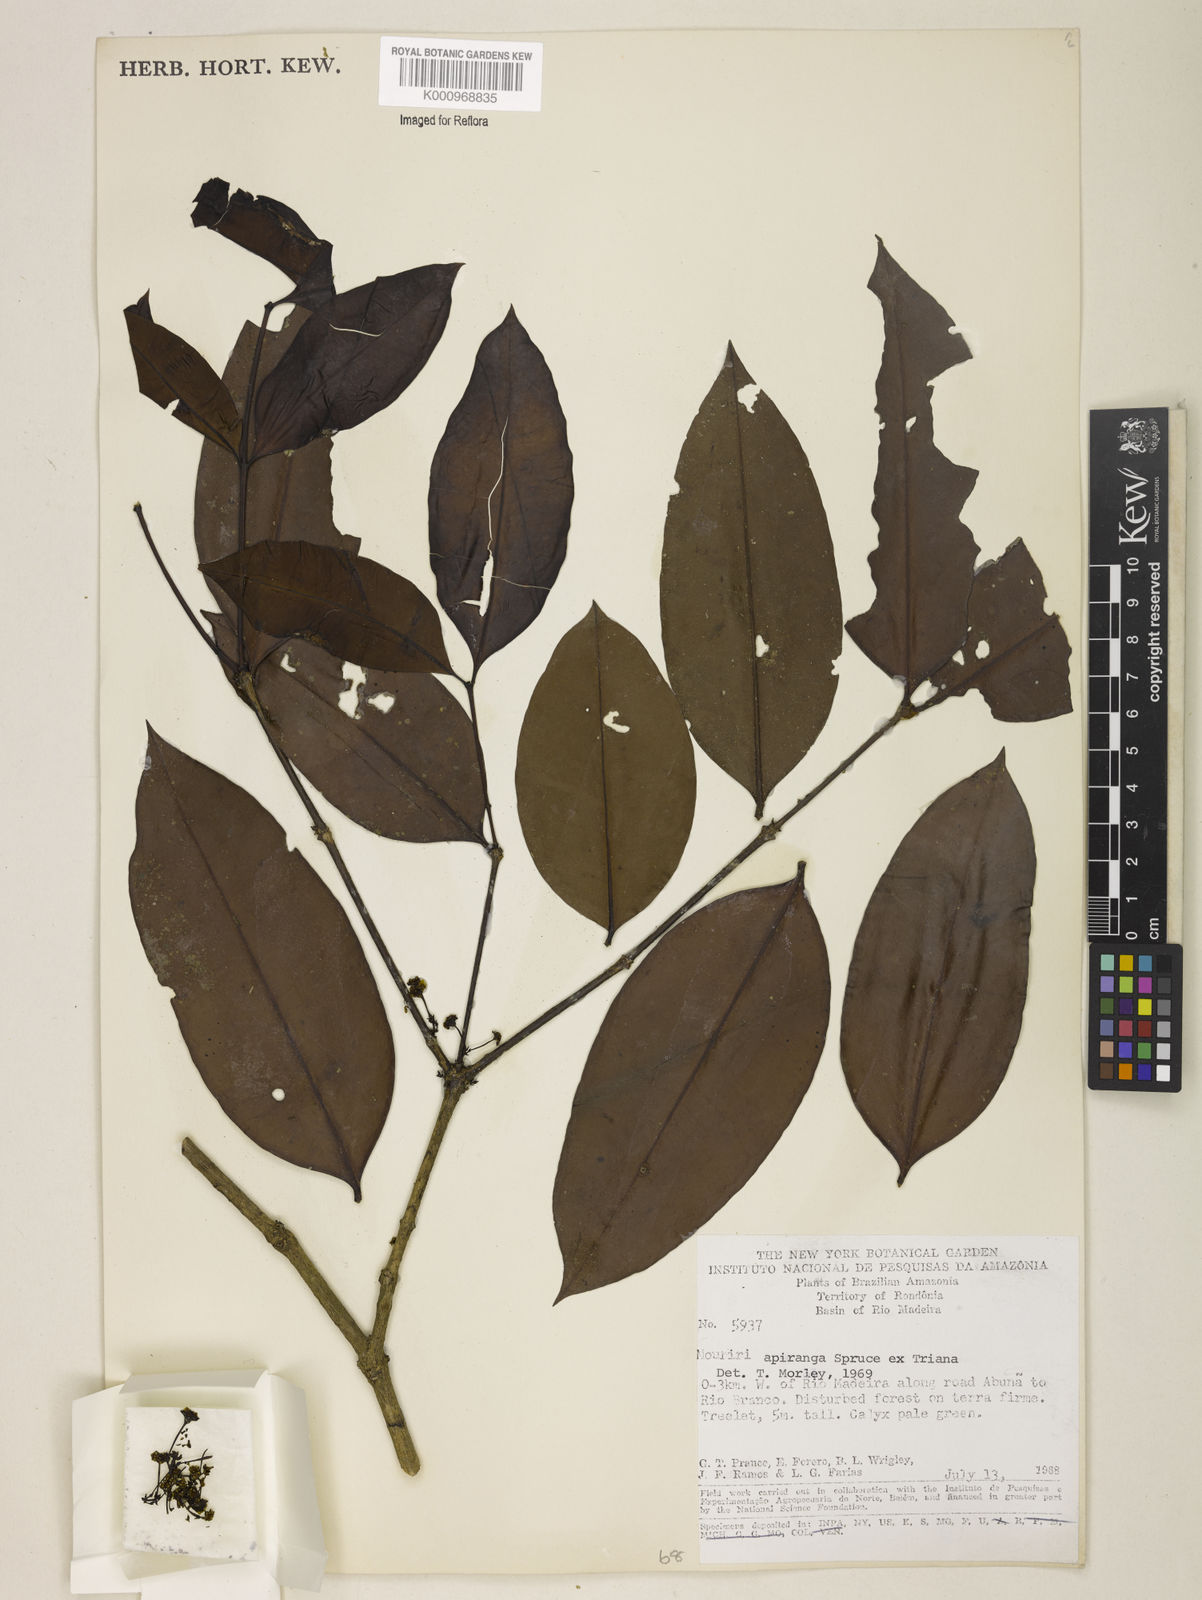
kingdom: Plantae
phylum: Tracheophyta
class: Magnoliopsida
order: Myrtales
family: Melastomataceae
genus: Mouriri
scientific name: Mouriri apiranga
